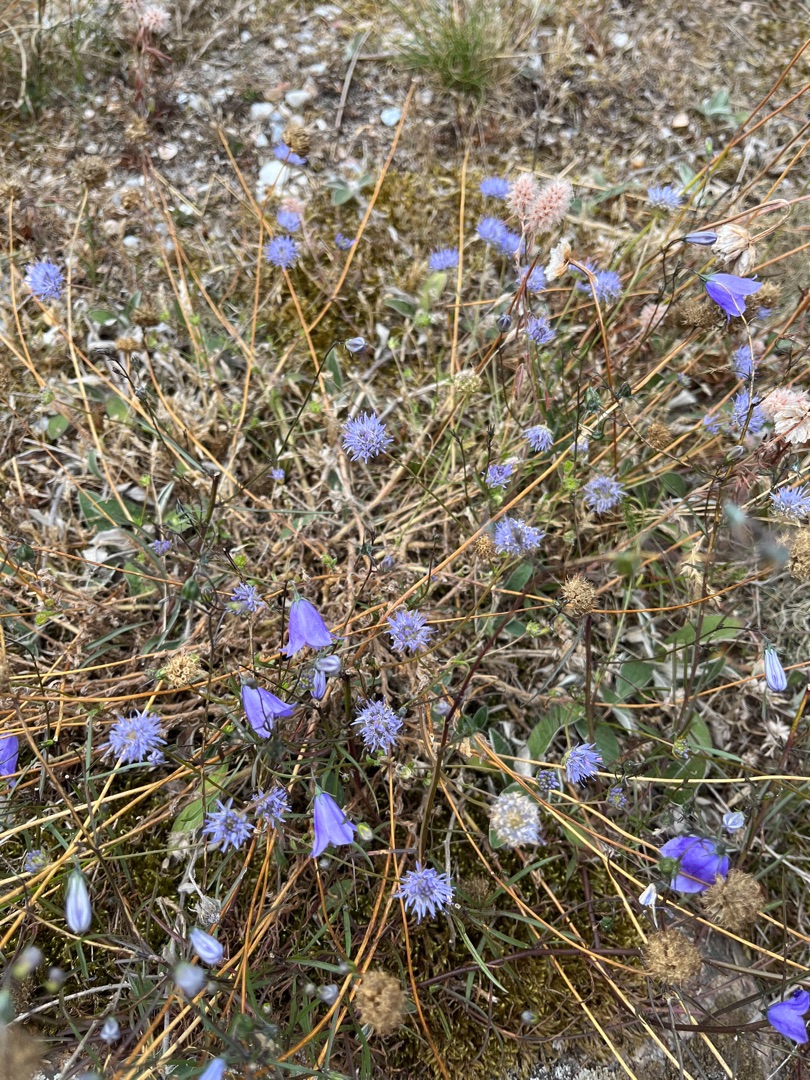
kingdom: Plantae
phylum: Tracheophyta
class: Magnoliopsida
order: Asterales
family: Campanulaceae
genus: Campanula
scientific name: Campanula rotundifolia
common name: Liden klokke
